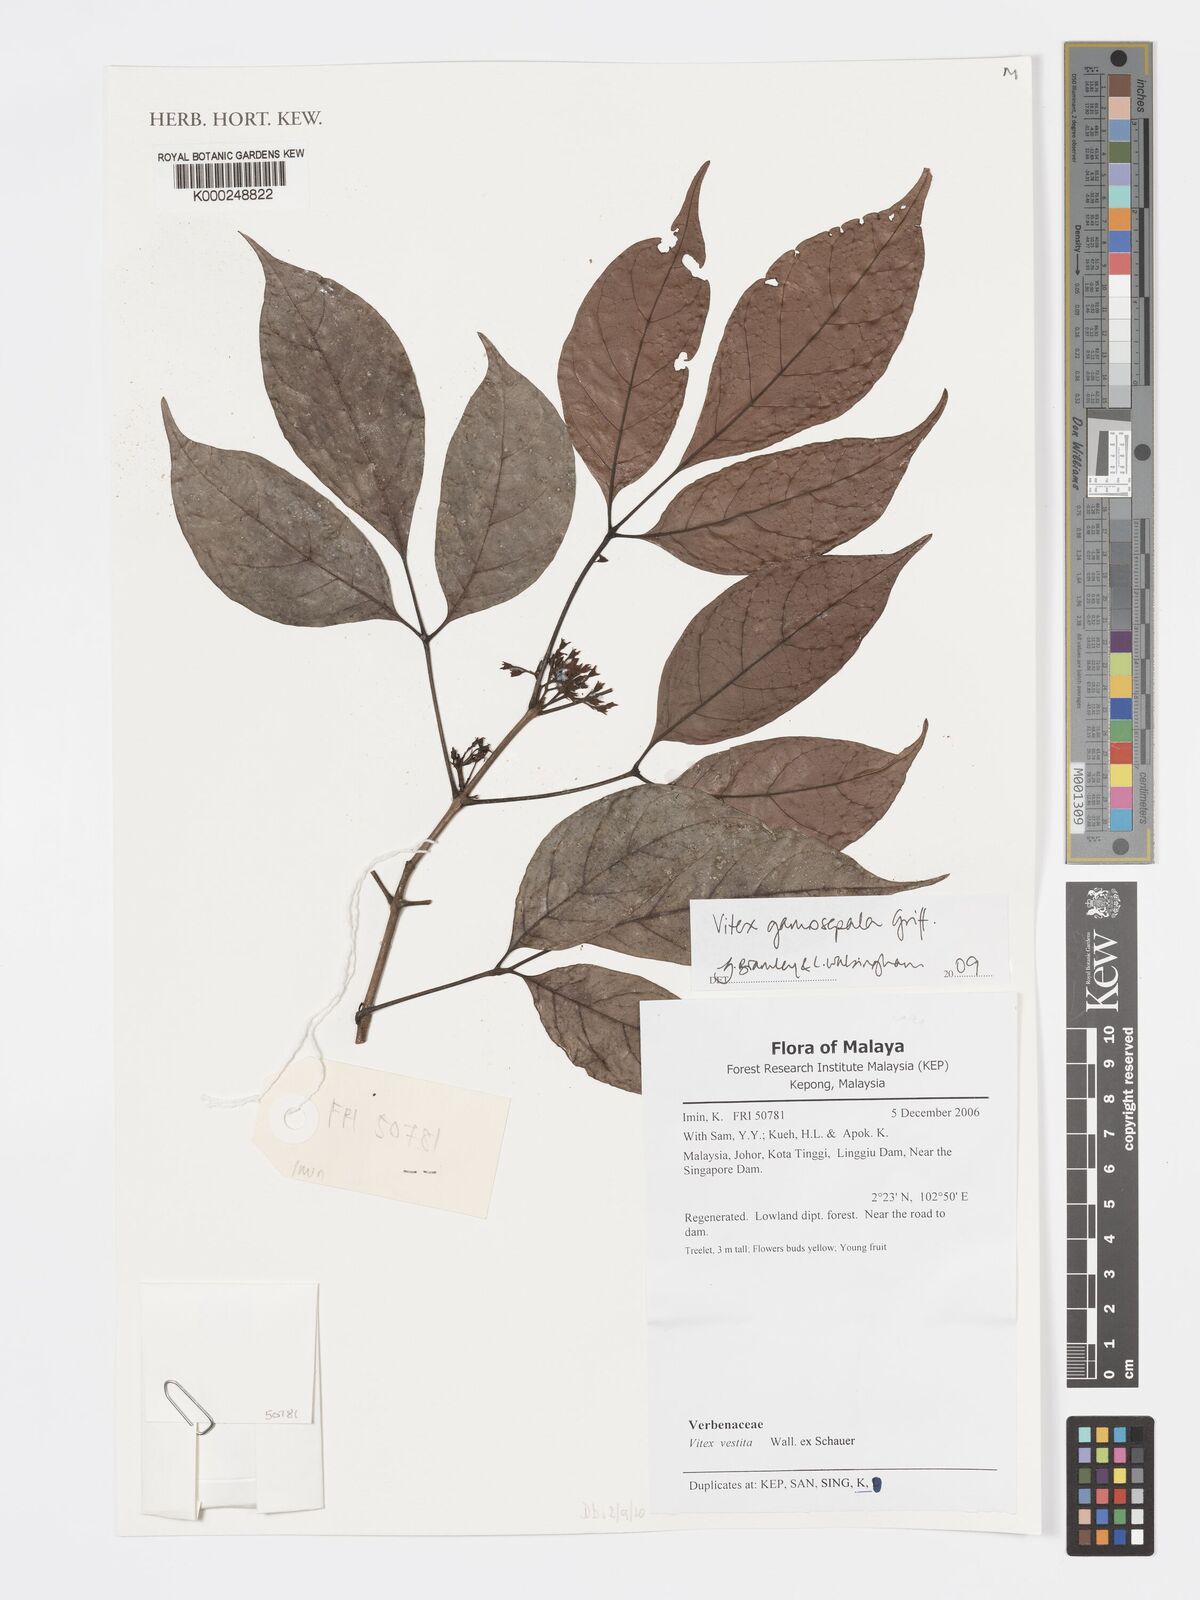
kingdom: Plantae
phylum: Tracheophyta
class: Magnoliopsida
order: Lamiales
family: Lamiaceae
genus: Vitex
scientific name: Vitex gamosepala
